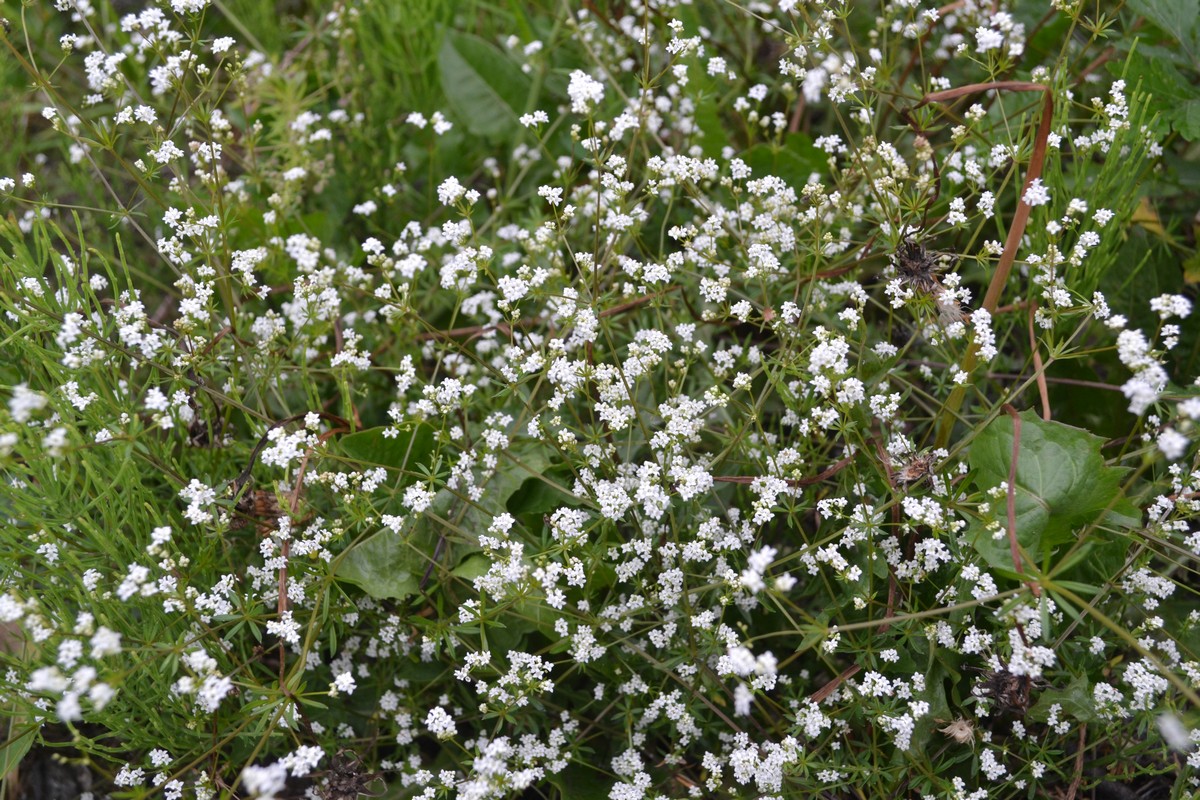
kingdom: Plantae
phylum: Tracheophyta
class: Magnoliopsida
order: Gentianales
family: Rubiaceae
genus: Galium
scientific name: Galium rivale
